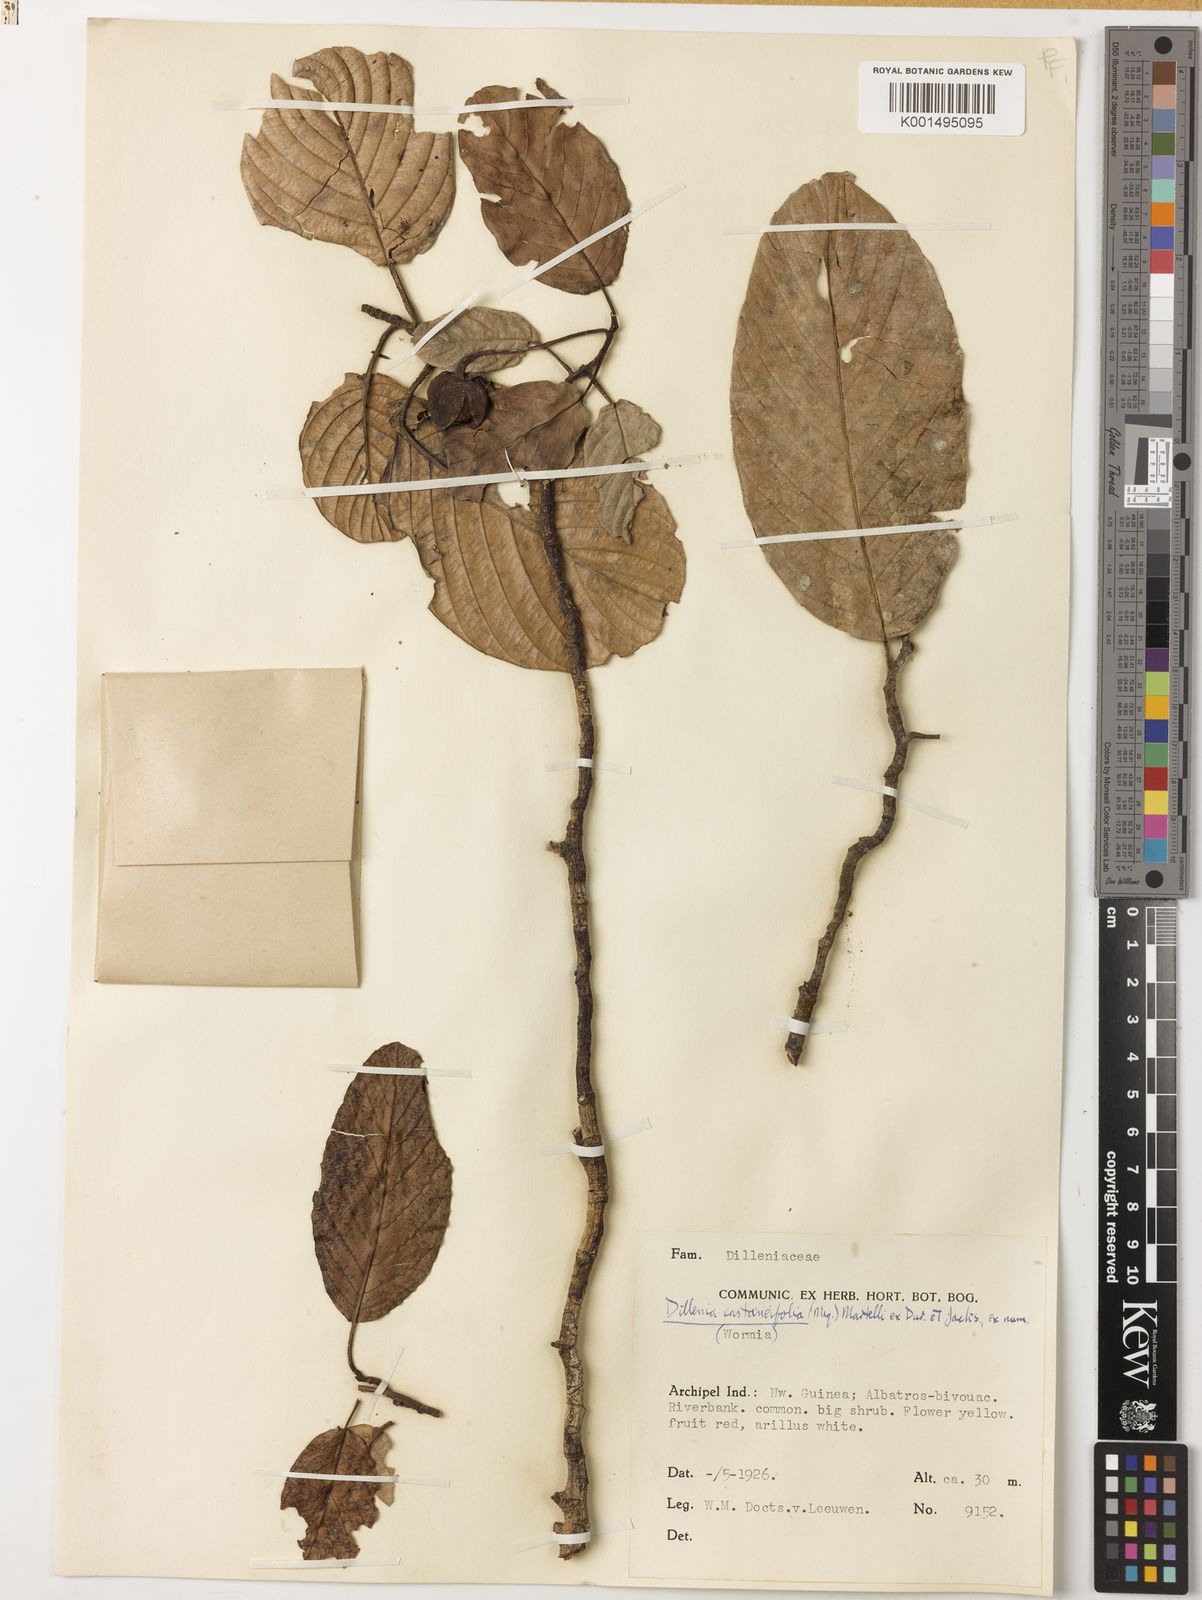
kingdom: Plantae
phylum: Tracheophyta
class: Magnoliopsida
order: Dilleniales
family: Dilleniaceae
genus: Dillenia
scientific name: Dillenia castaneifolia
